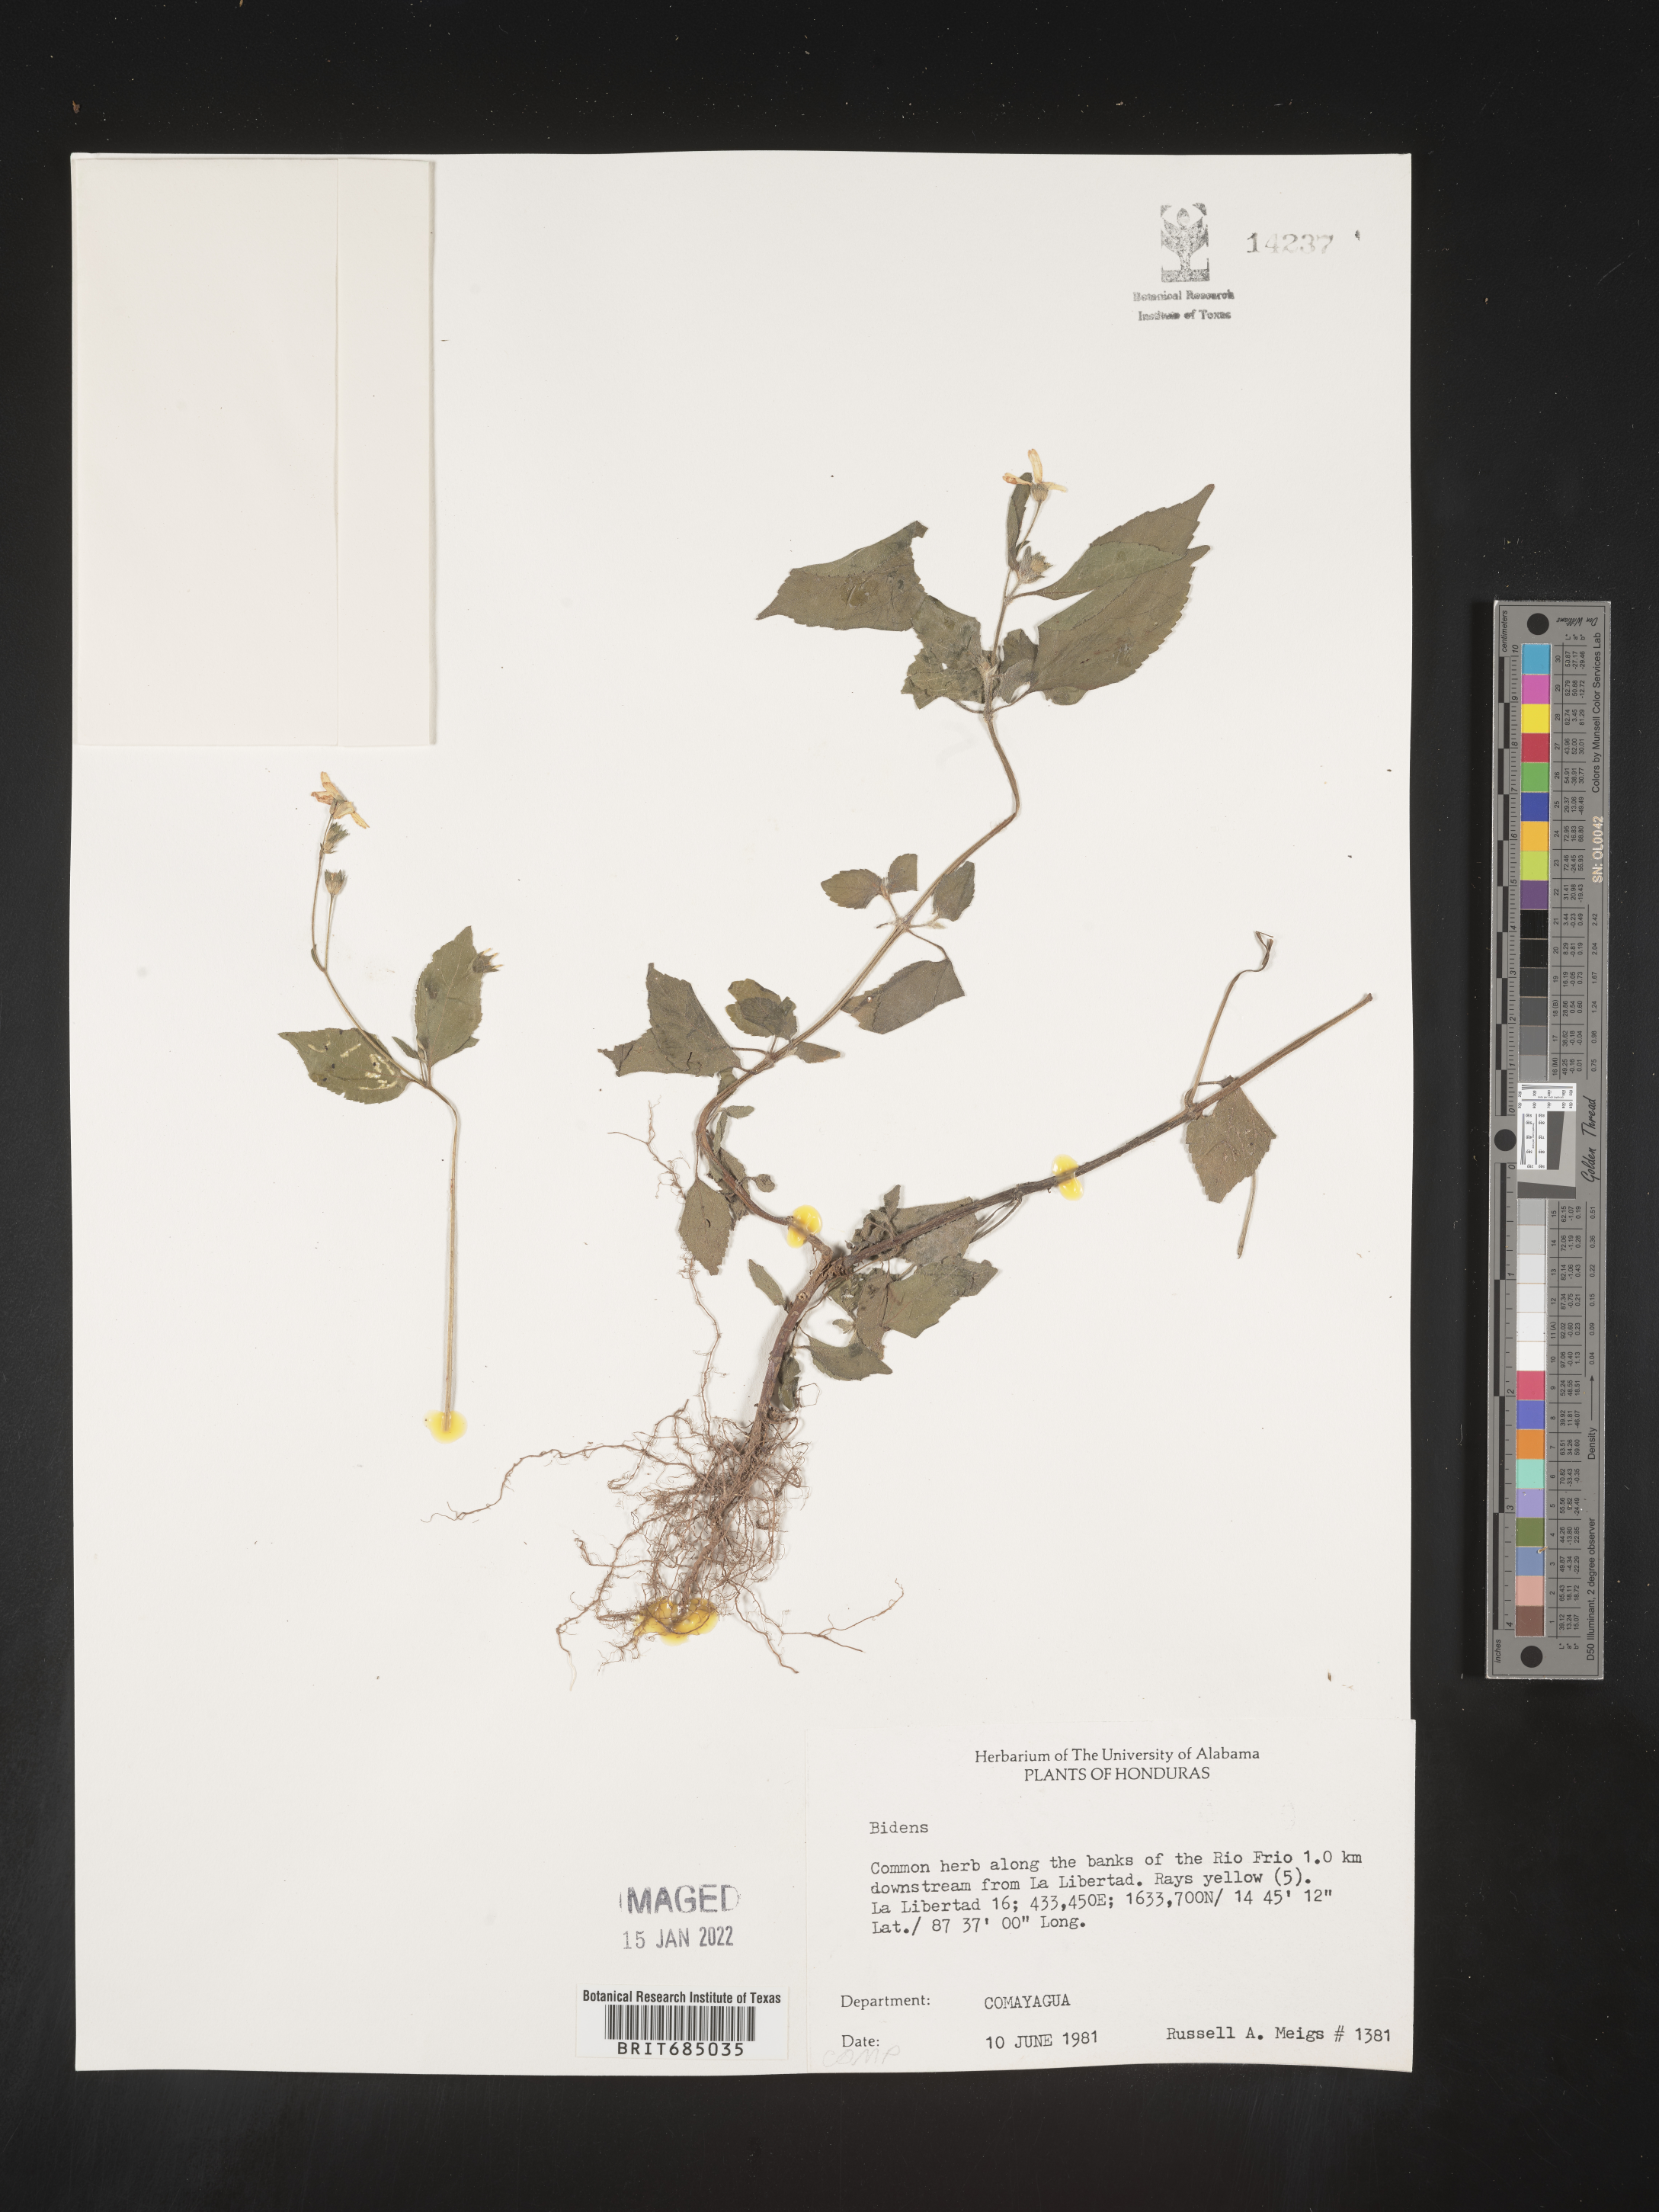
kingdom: Plantae
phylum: Tracheophyta
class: Magnoliopsida
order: Asterales
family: Asteraceae
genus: Bidens
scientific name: Bidens
